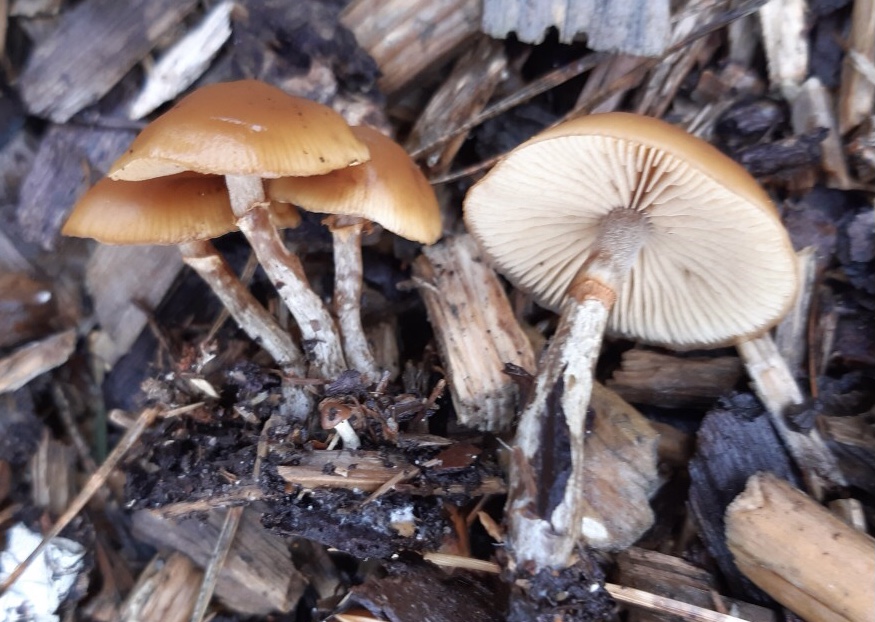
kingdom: Fungi
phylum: Basidiomycota
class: Agaricomycetes
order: Agaricales
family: Hymenogastraceae
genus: Galerina
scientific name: Galerina marginata
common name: randbæltet hjelmhat
